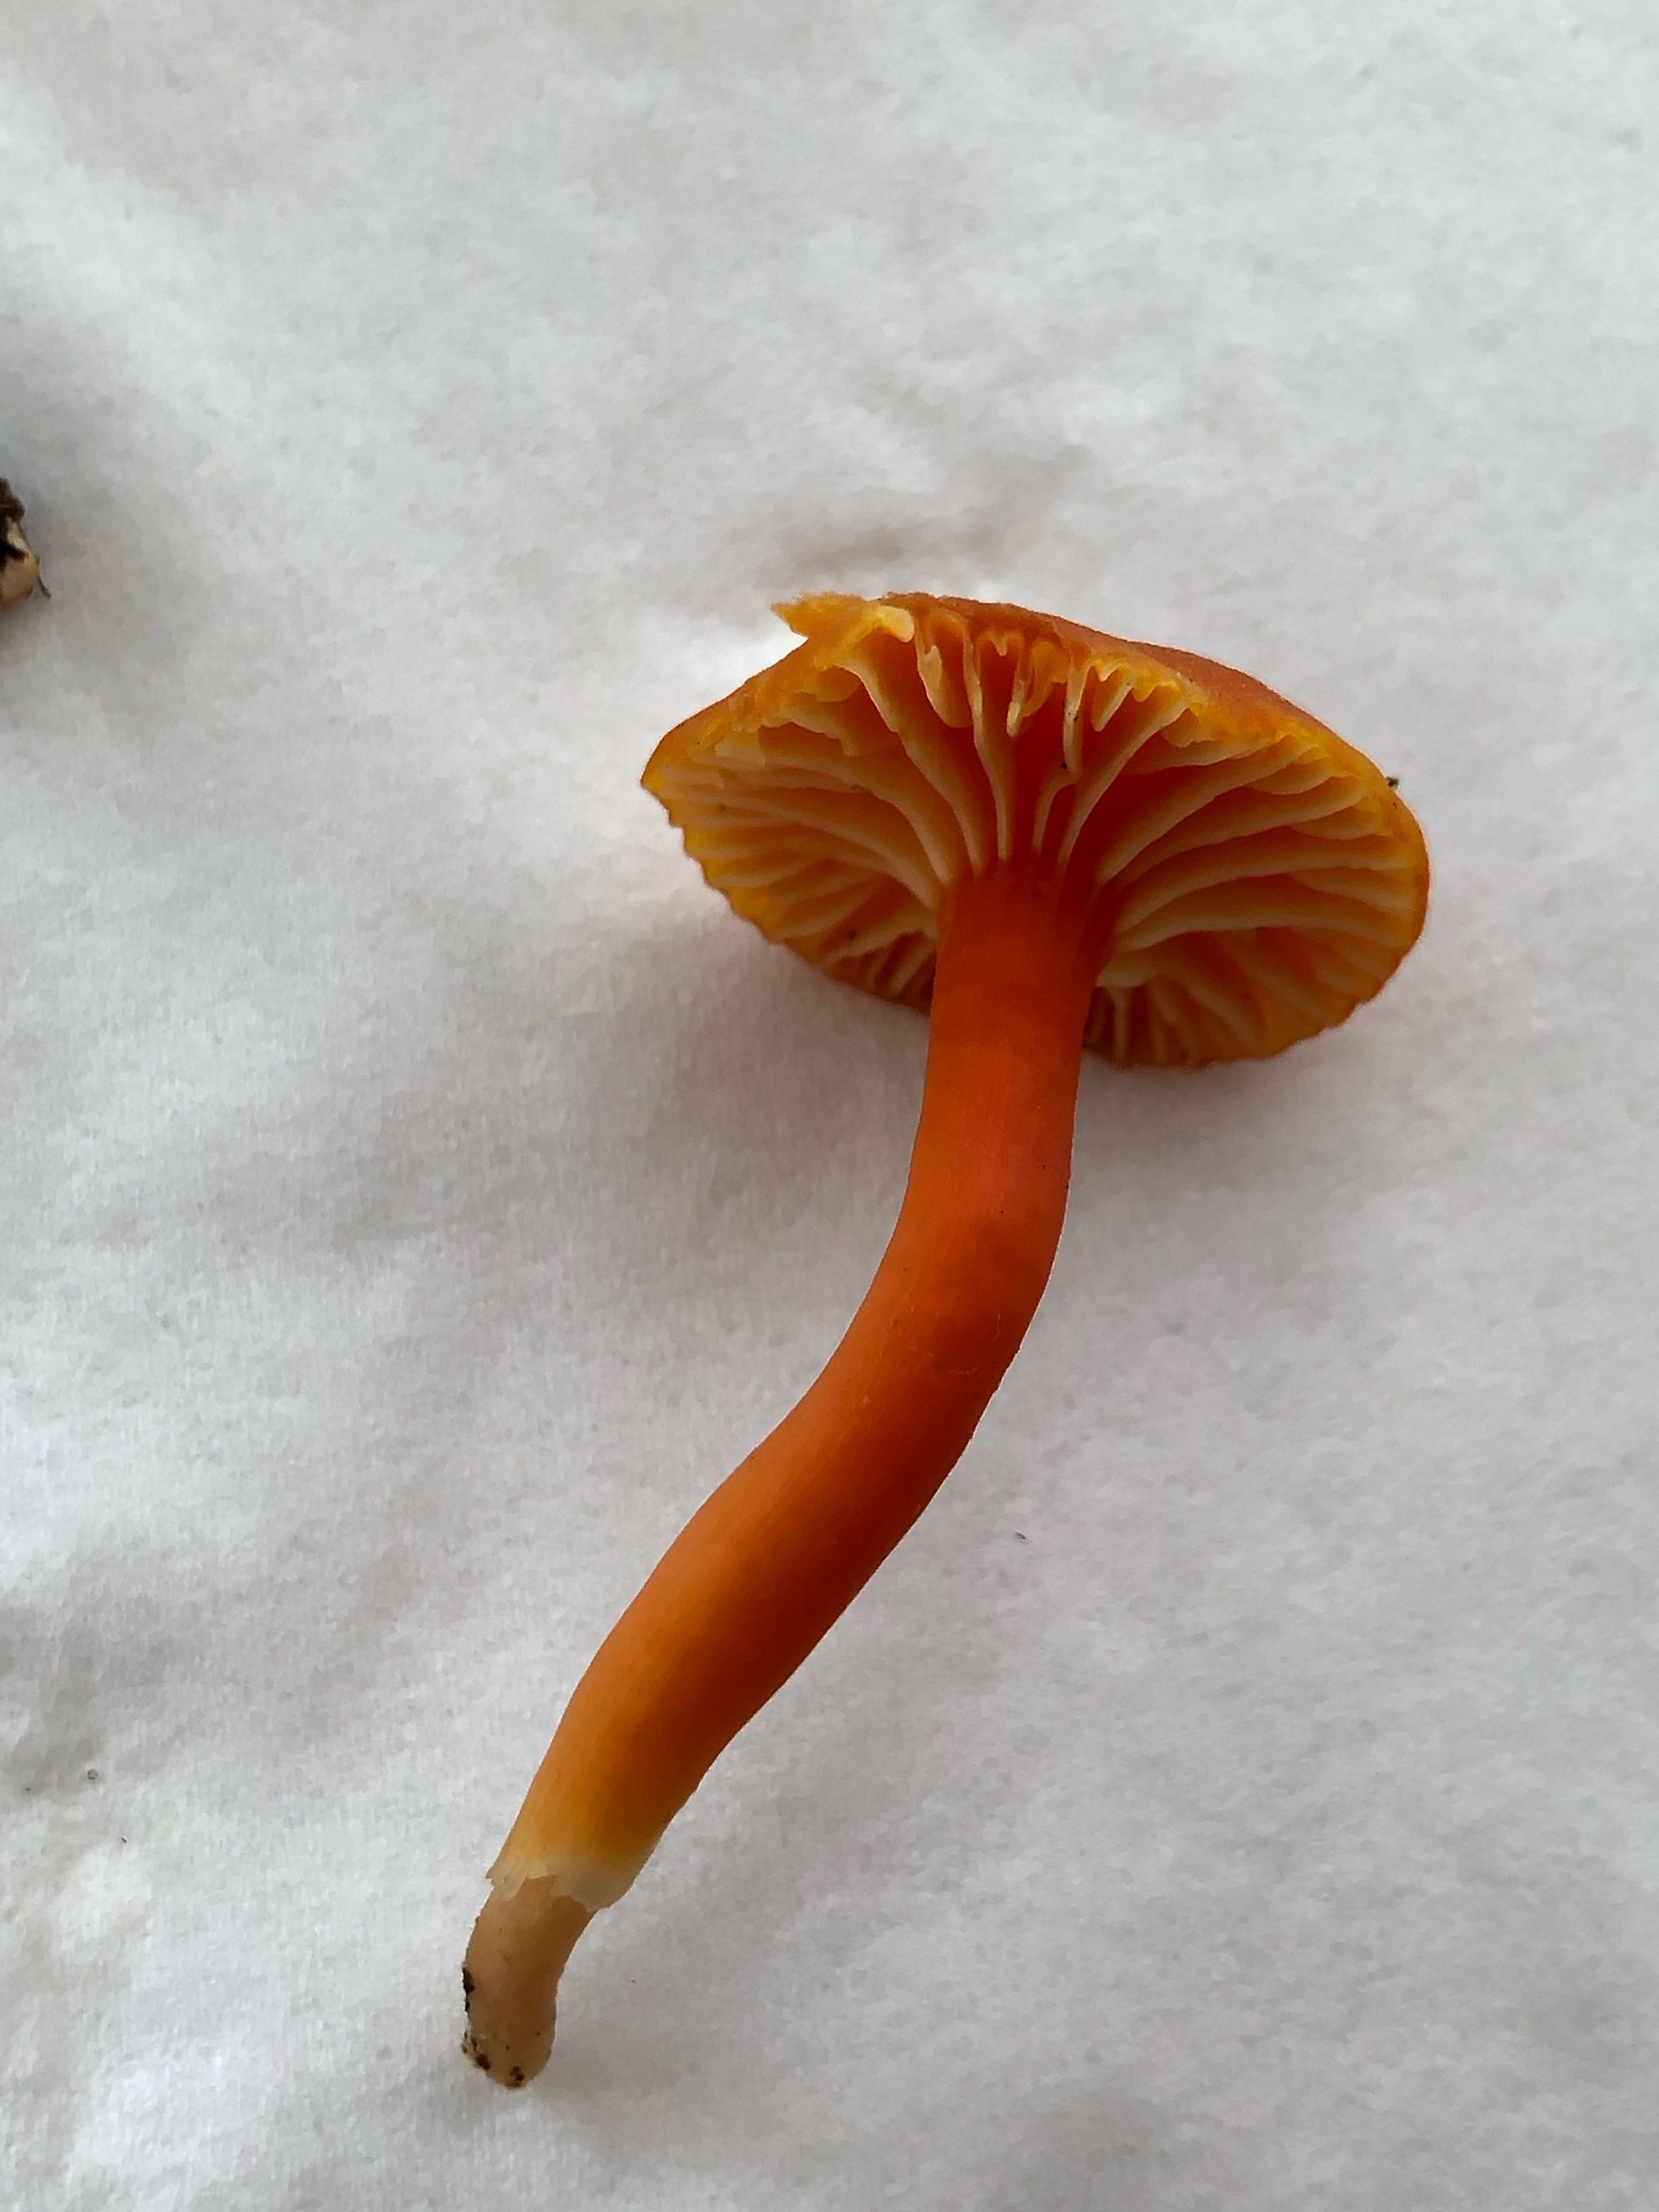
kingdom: Fungi
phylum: Basidiomycota
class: Agaricomycetes
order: Agaricales
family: Hygrophoraceae
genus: Hygrocybe
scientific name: Hygrocybe cantharellus
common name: kantarel-vokshat
